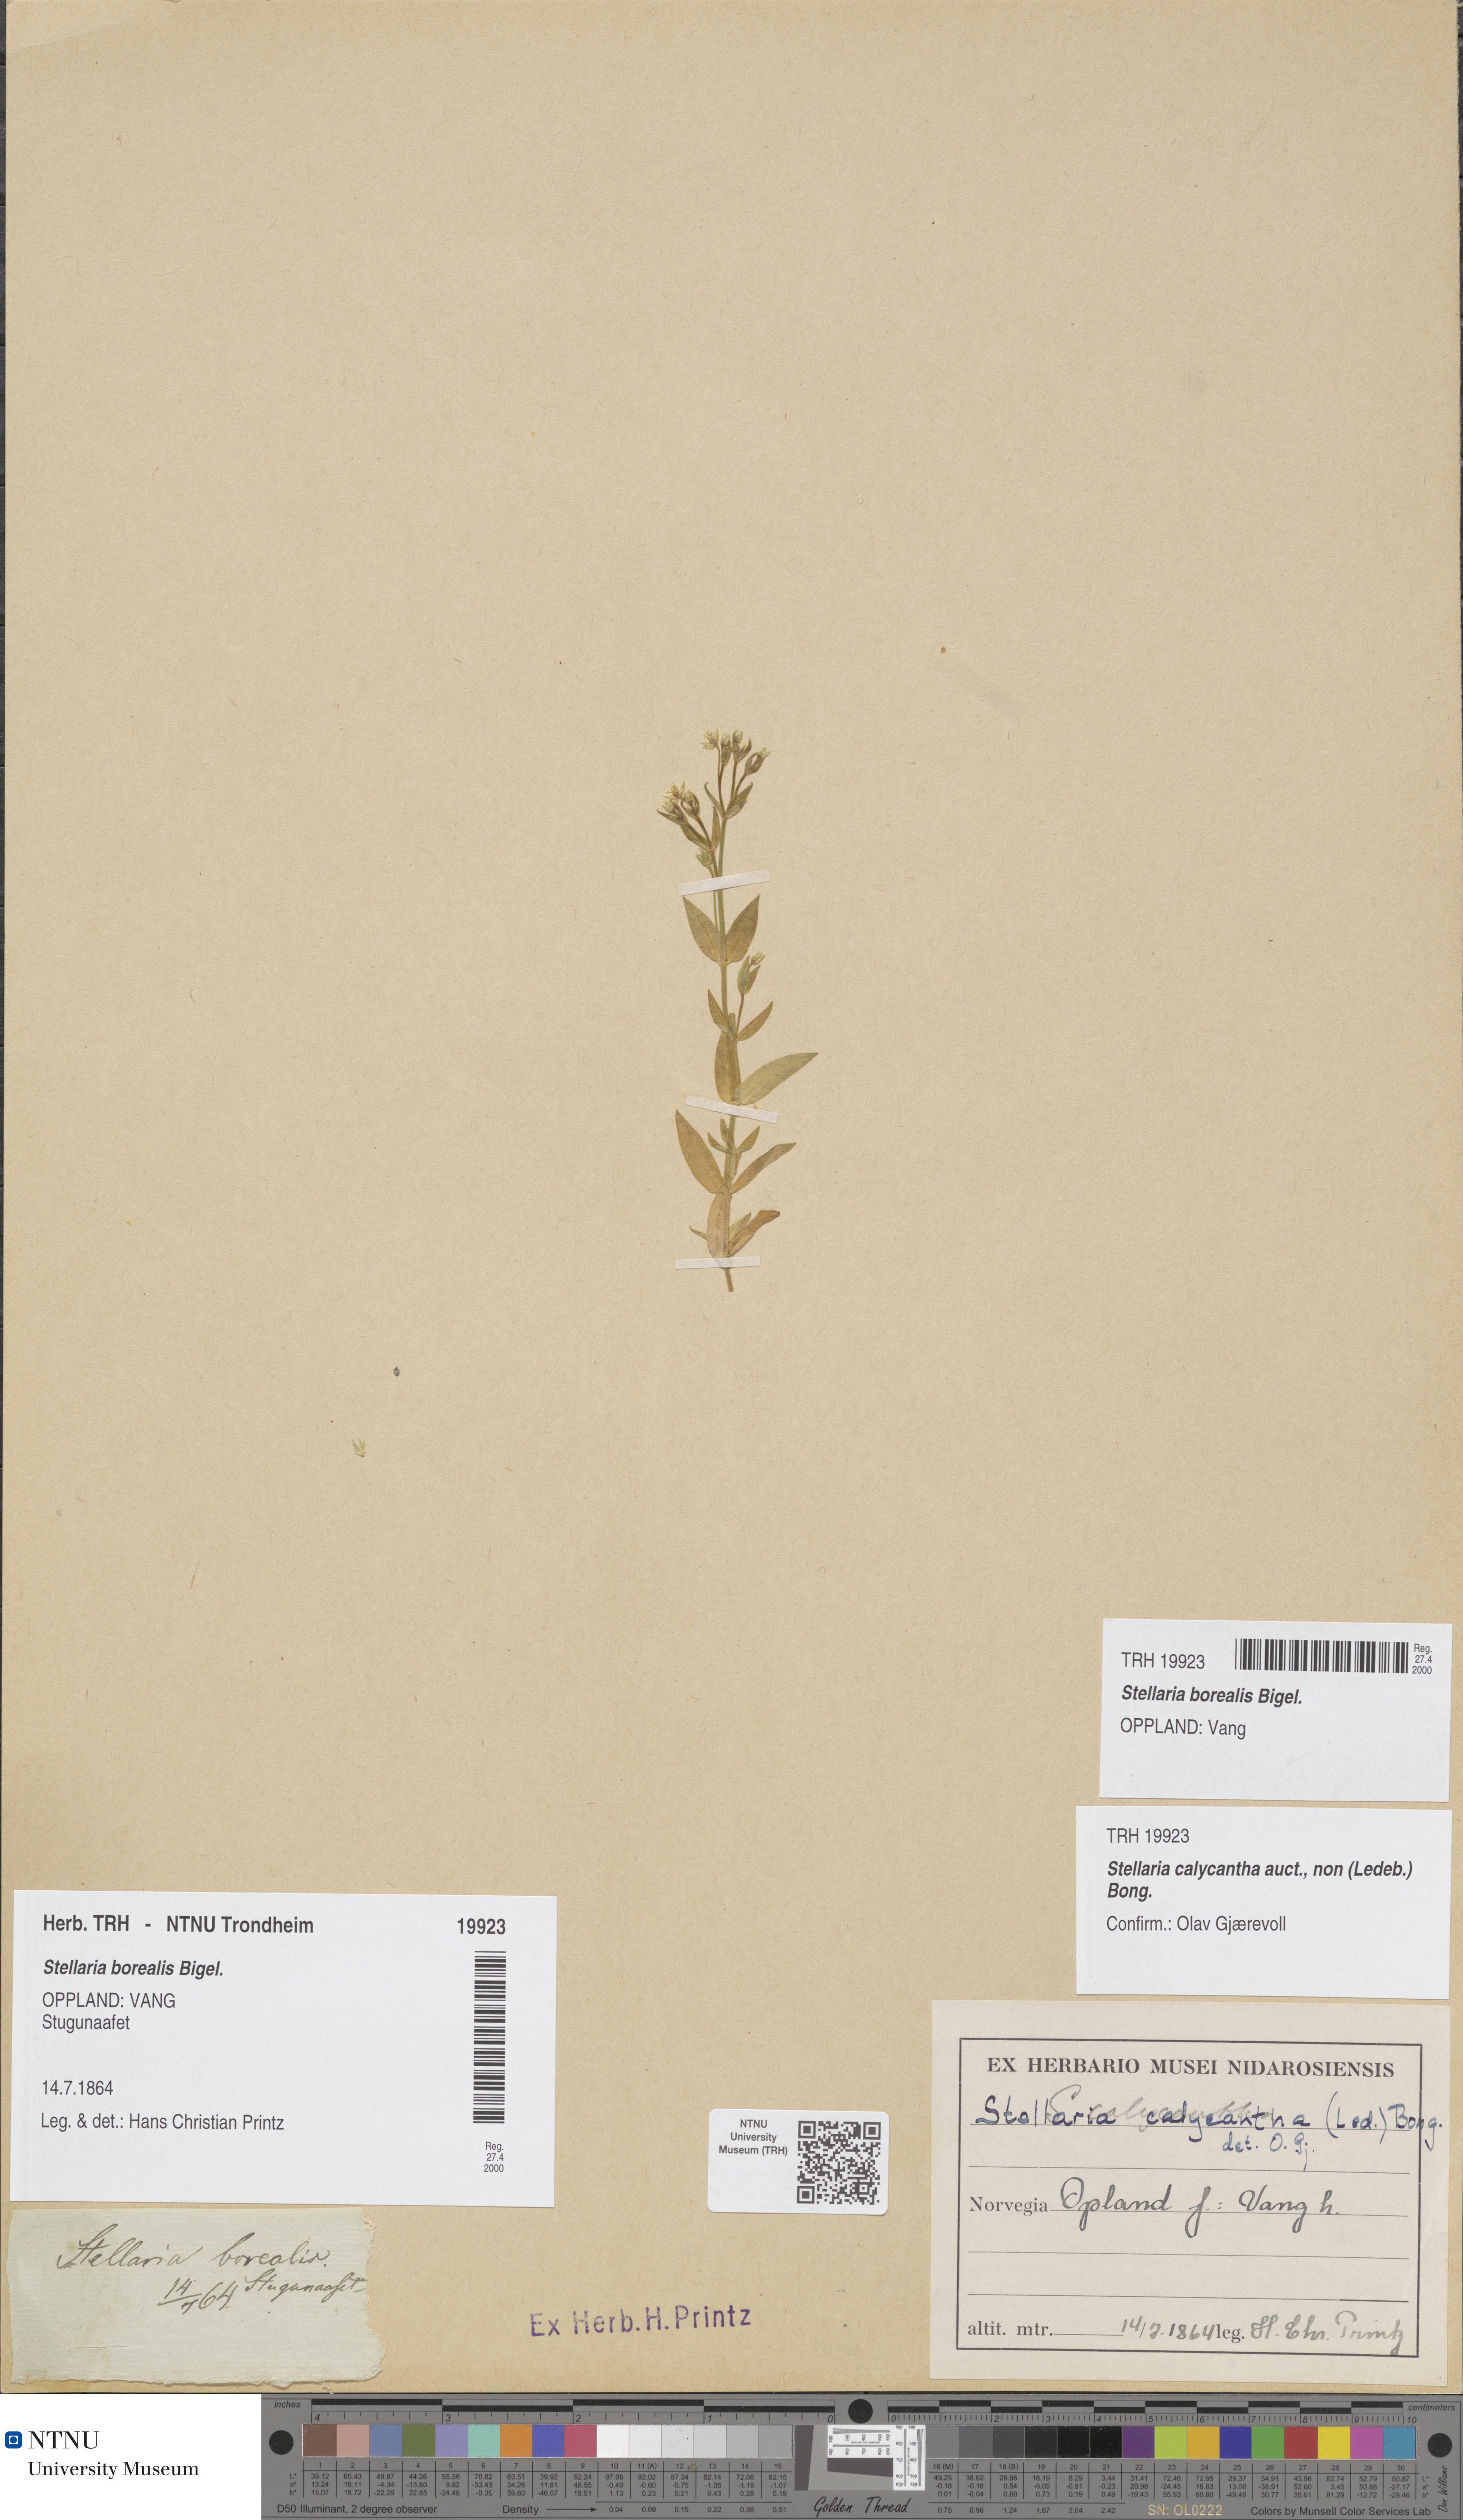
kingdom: Plantae
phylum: Tracheophyta
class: Magnoliopsida
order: Caryophyllales
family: Caryophyllaceae
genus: Stellaria
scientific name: Stellaria borealis
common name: Boreal starwort
